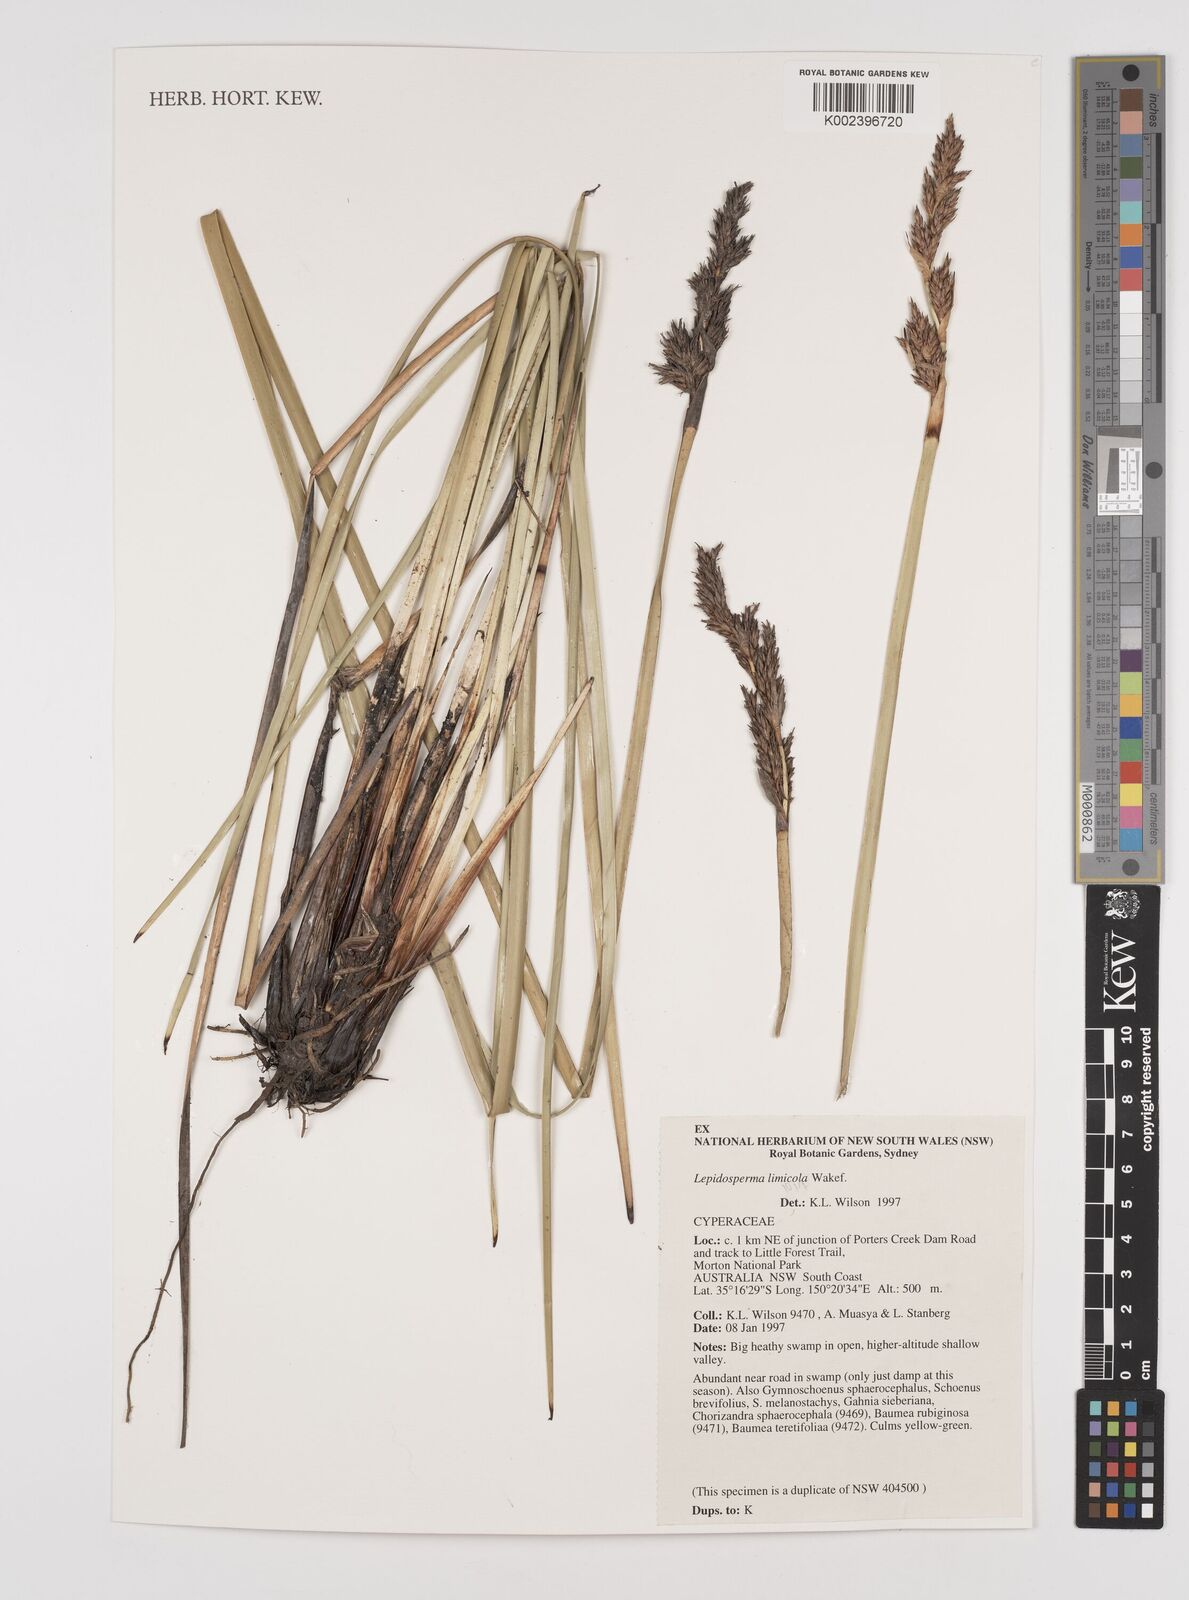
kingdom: Plantae
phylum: Tracheophyta
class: Liliopsida
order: Poales
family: Cyperaceae
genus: Lepidosperma
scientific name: Lepidosperma limicola
